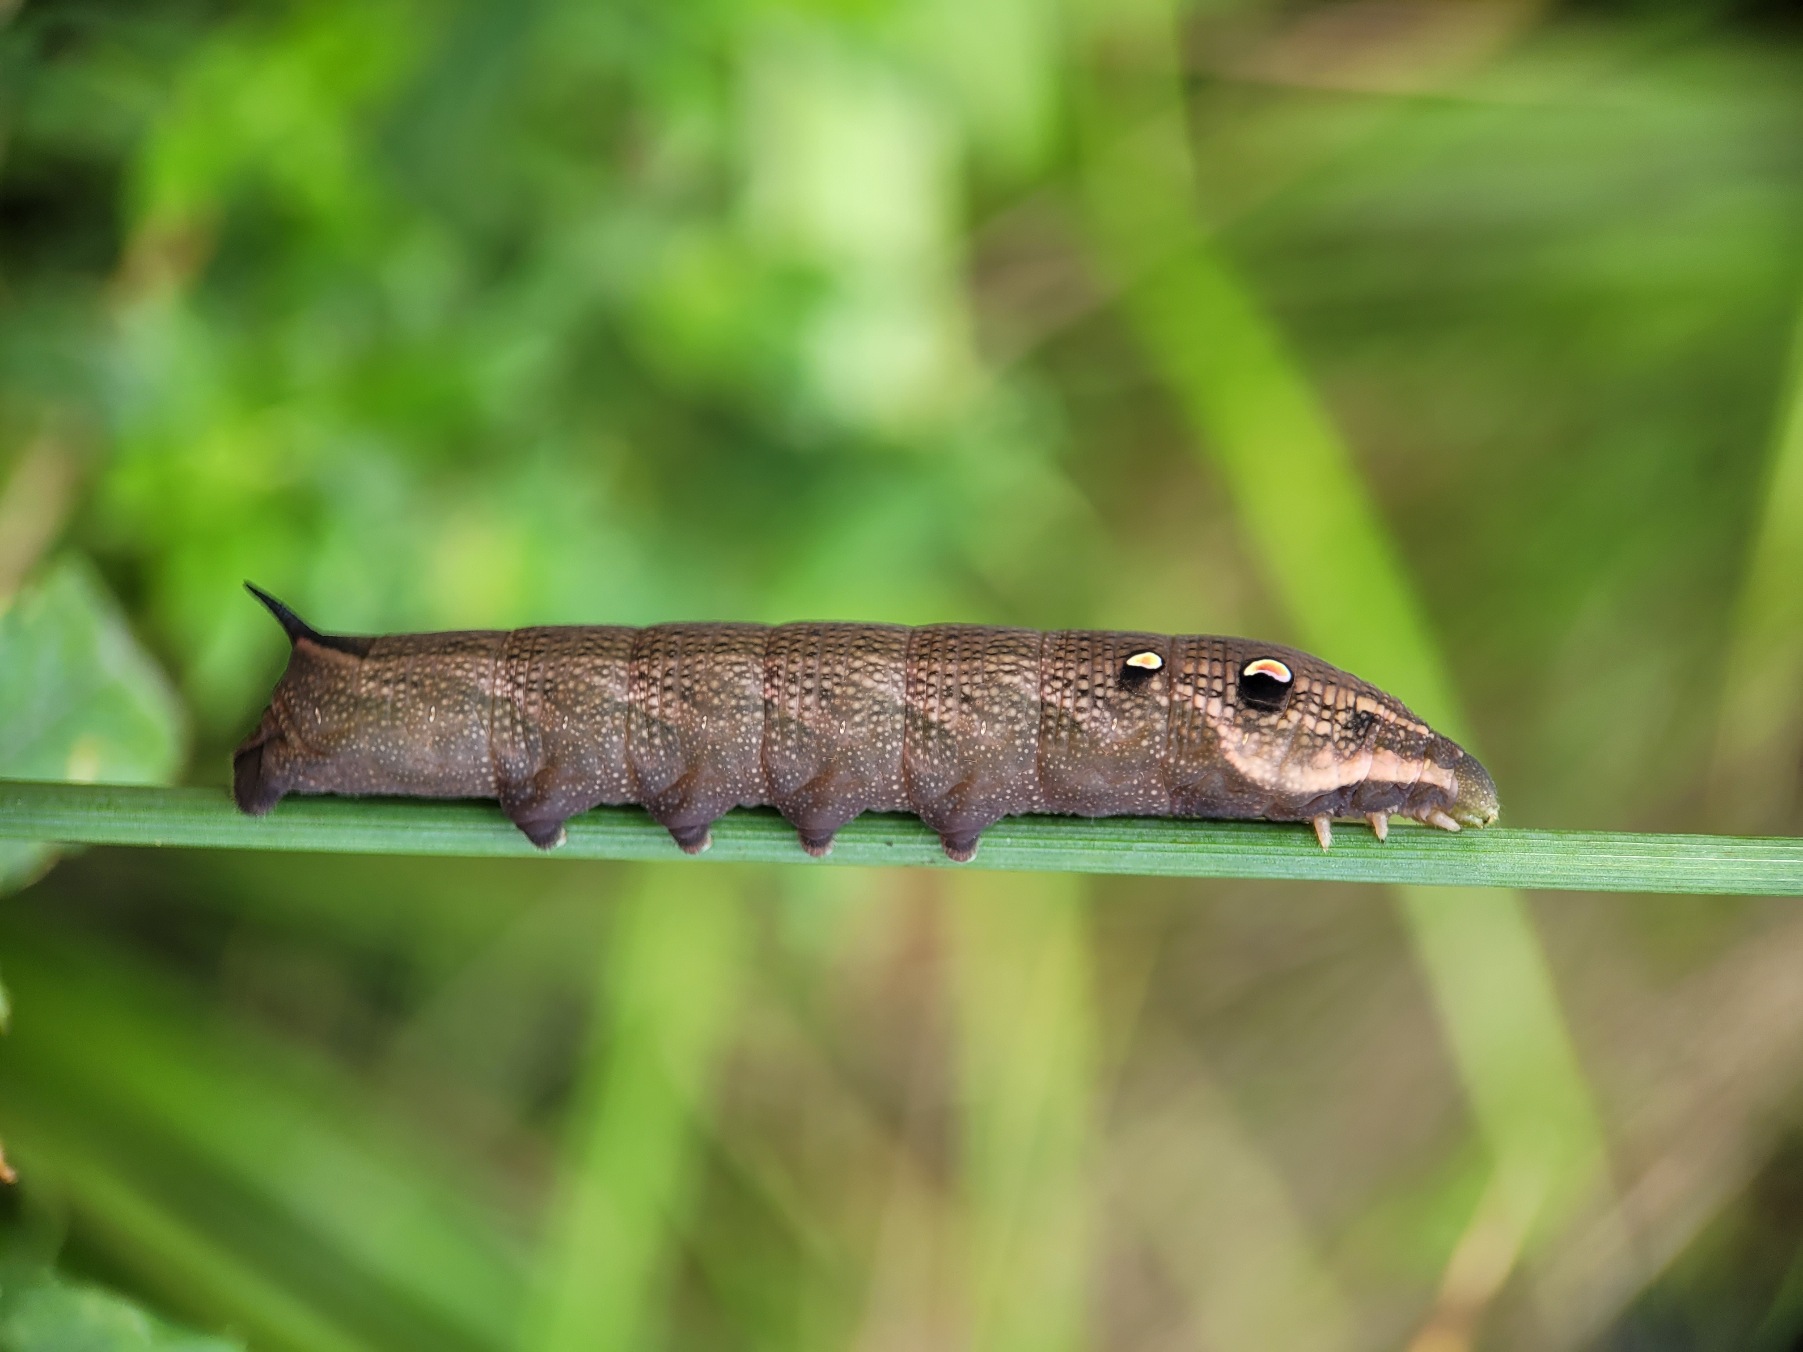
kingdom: Animalia
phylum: Arthropoda
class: Insecta
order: Lepidoptera
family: Sphingidae
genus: Deilephila
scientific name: Deilephila elpenor
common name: Dueurtsværmer
